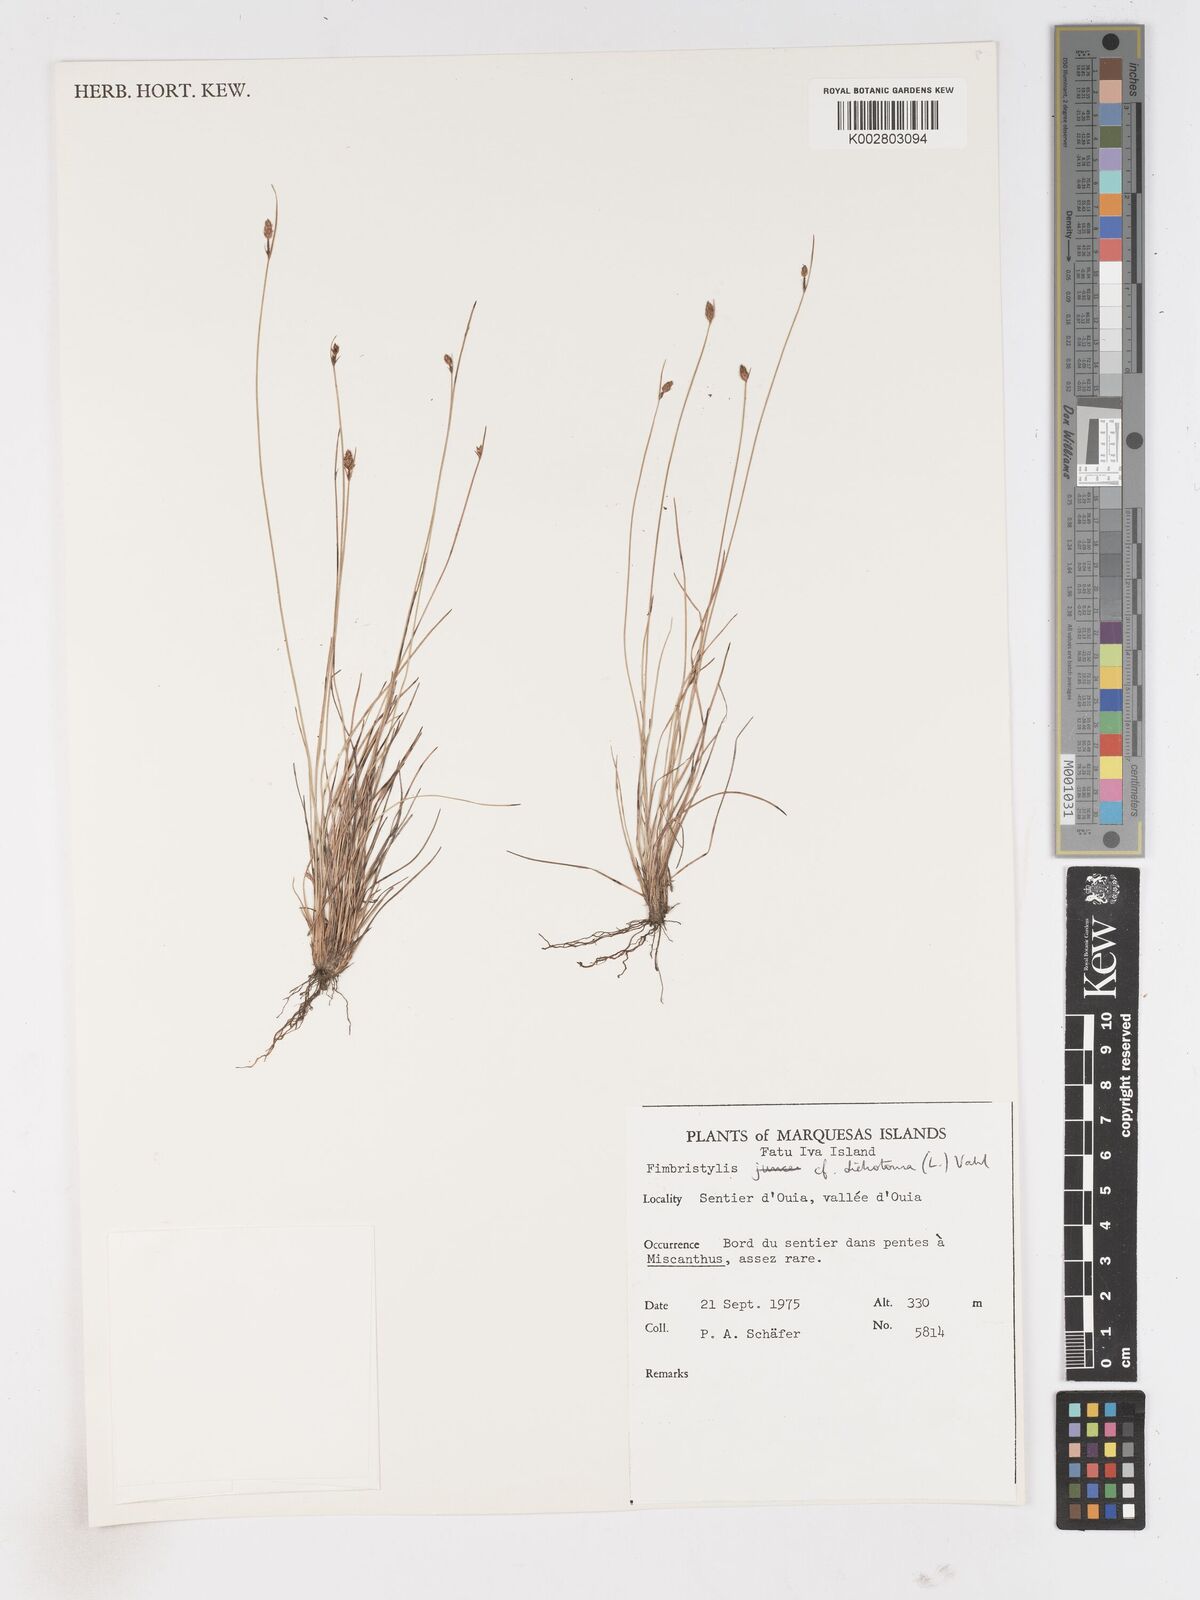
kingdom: Plantae
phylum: Tracheophyta
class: Liliopsida
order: Poales
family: Cyperaceae
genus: Fimbristylis
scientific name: Fimbristylis dichotoma
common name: Forked fimbry
